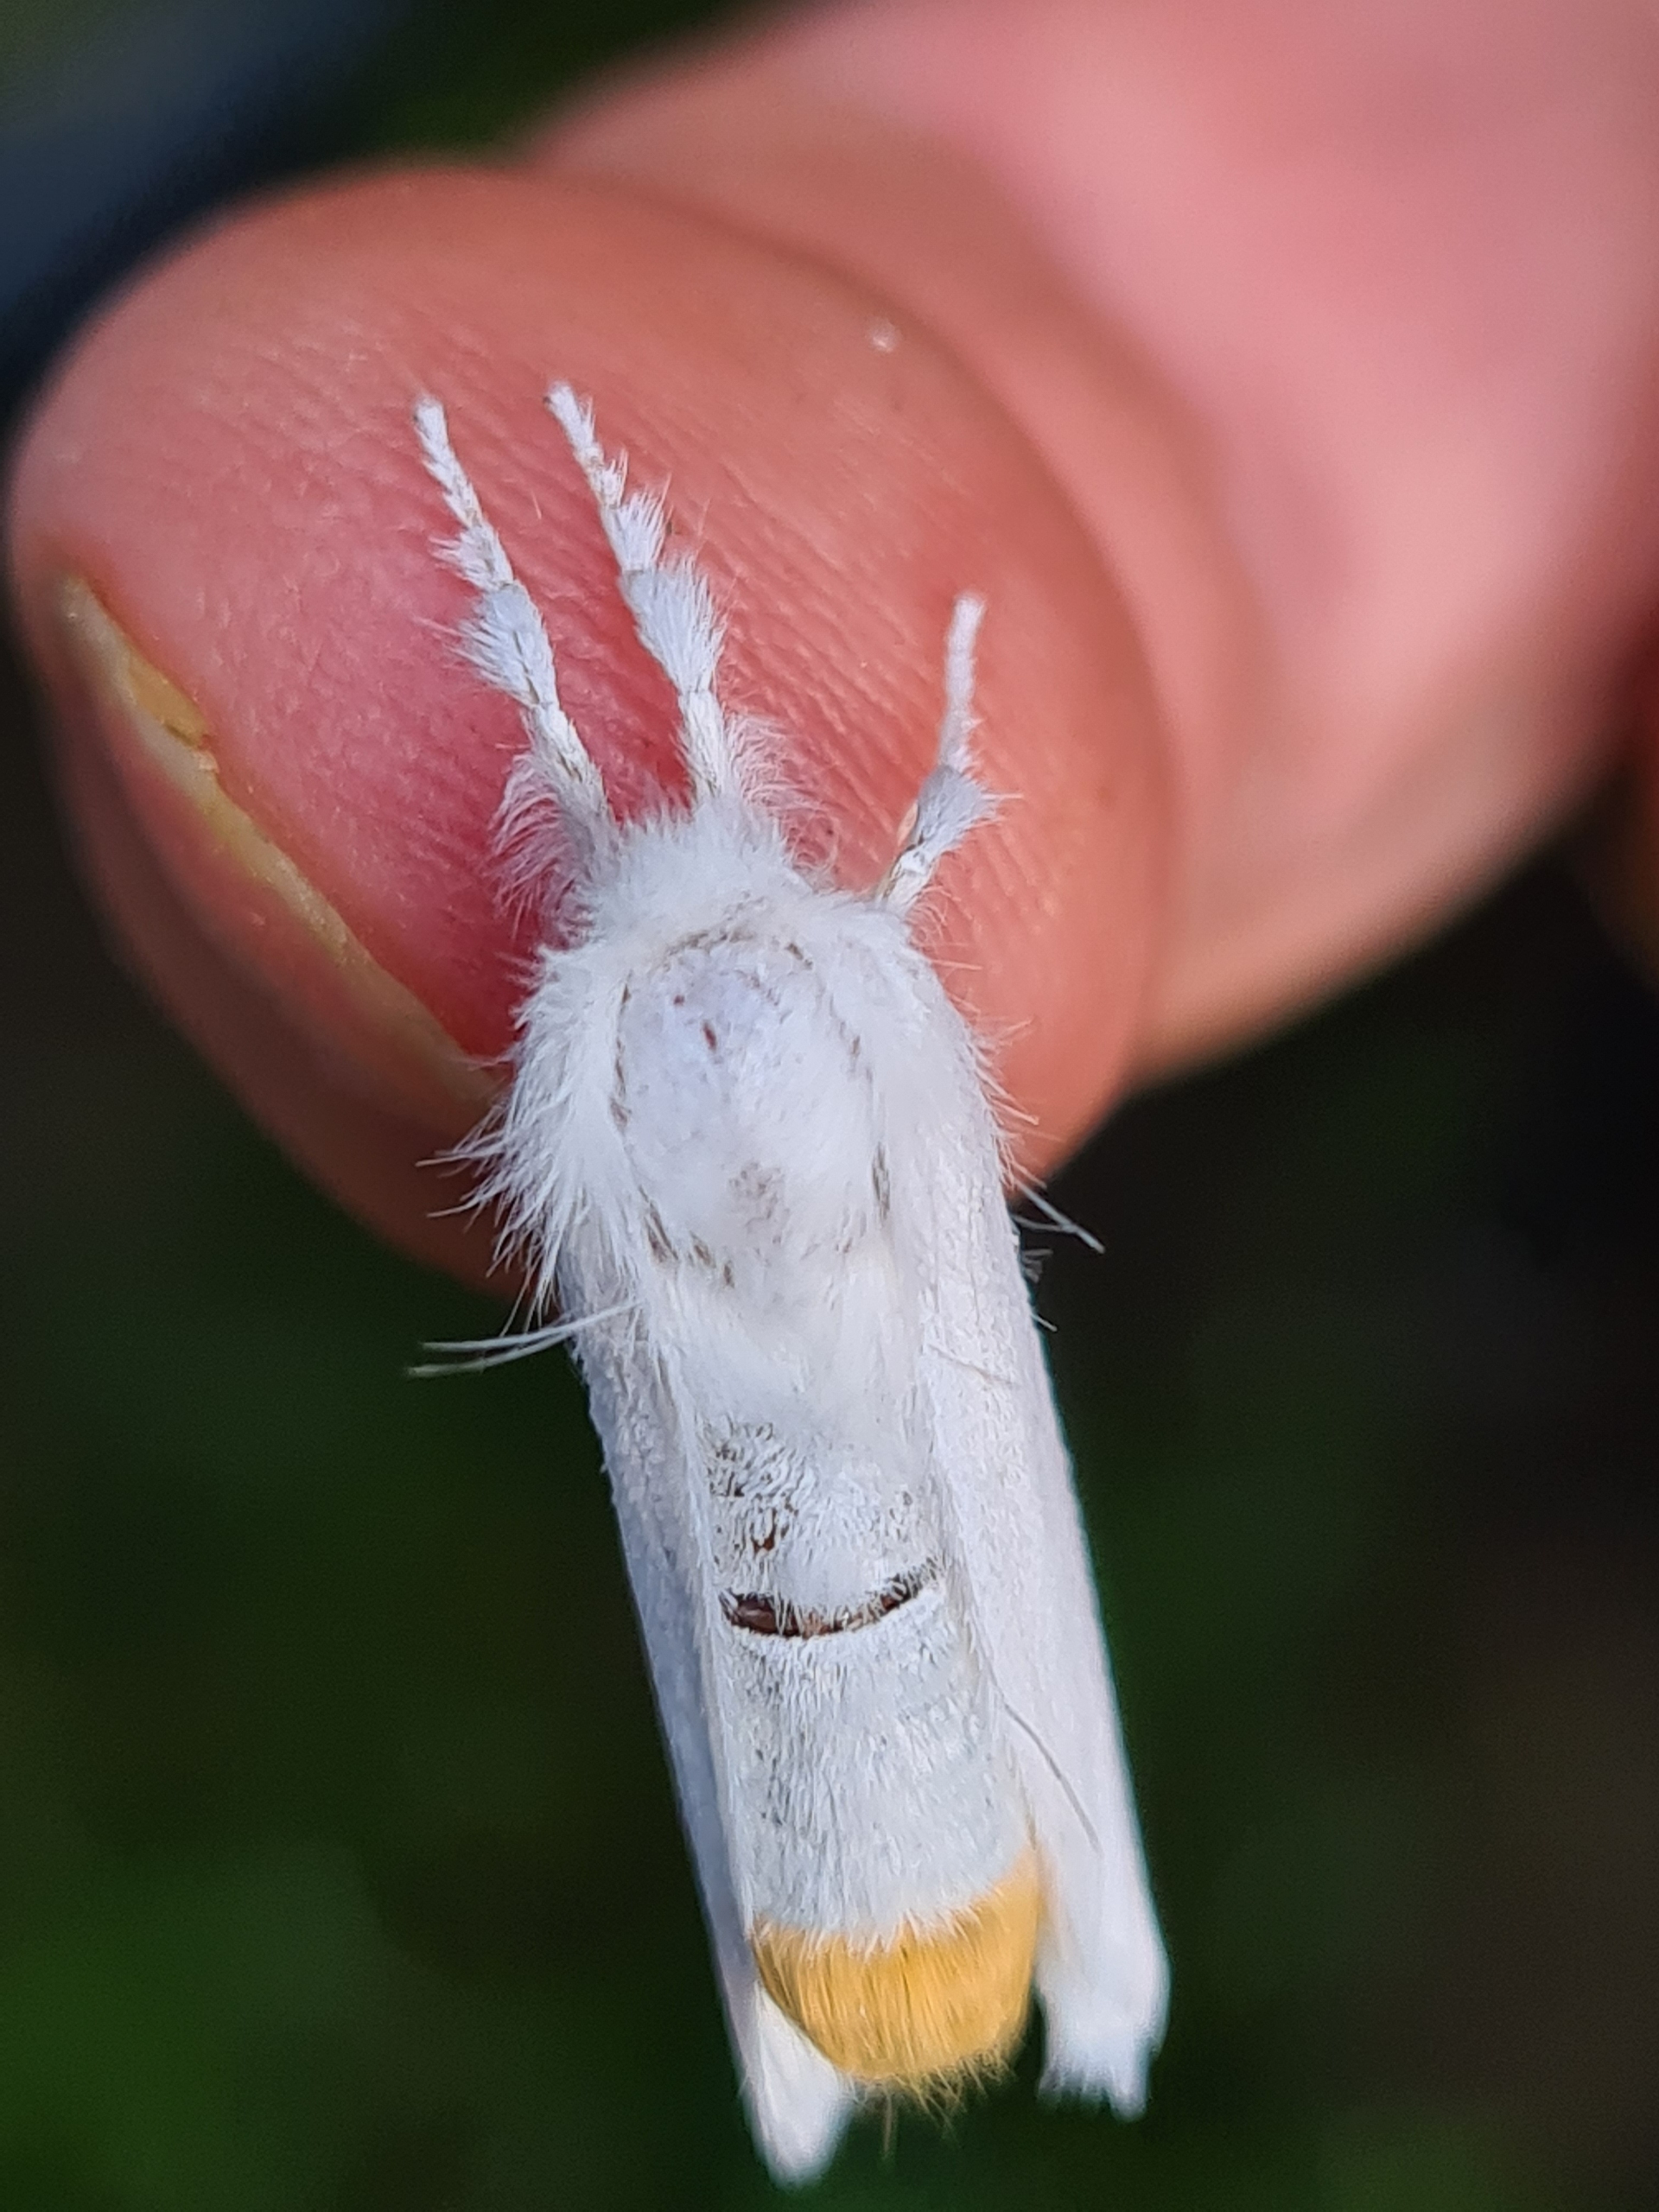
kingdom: Animalia
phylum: Arthropoda
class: Insecta
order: Lepidoptera
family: Erebidae
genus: Sphrageidus
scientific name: Sphrageidus similis
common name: Gulhale
